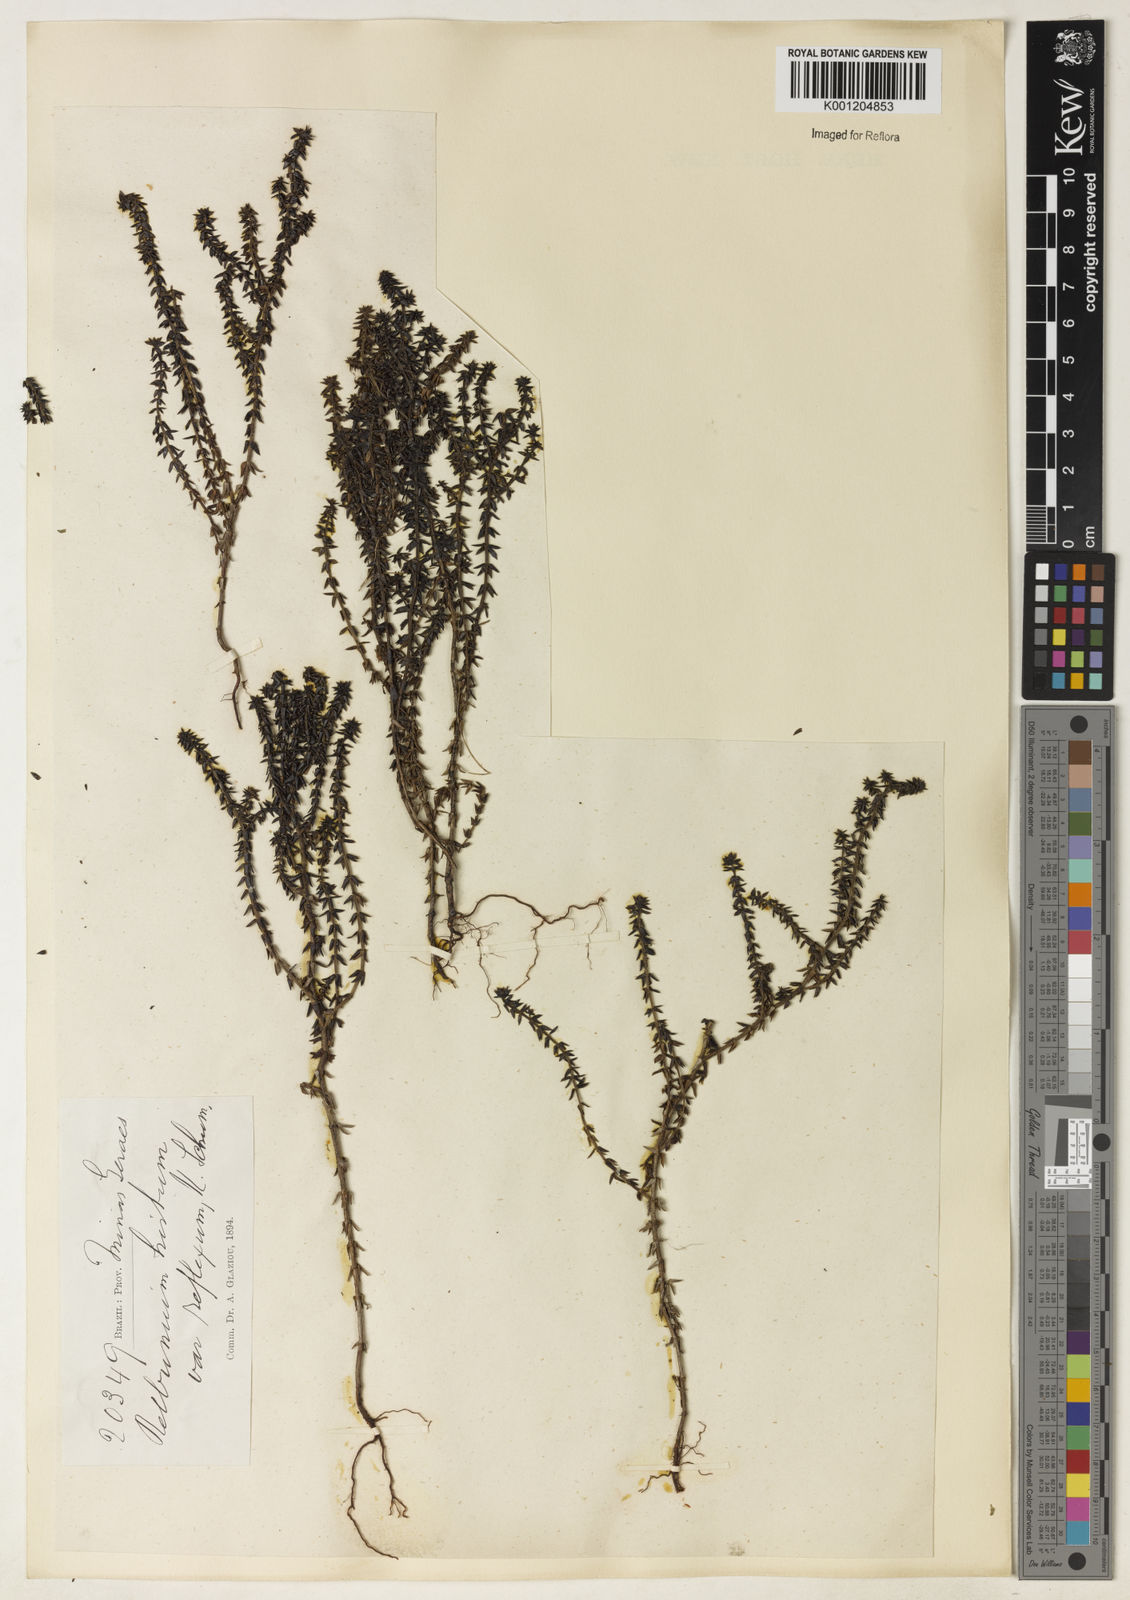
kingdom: Plantae
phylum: Tracheophyta
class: Magnoliopsida
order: Gentianales
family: Rubiaceae
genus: Galium
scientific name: Galium megapotamicum
